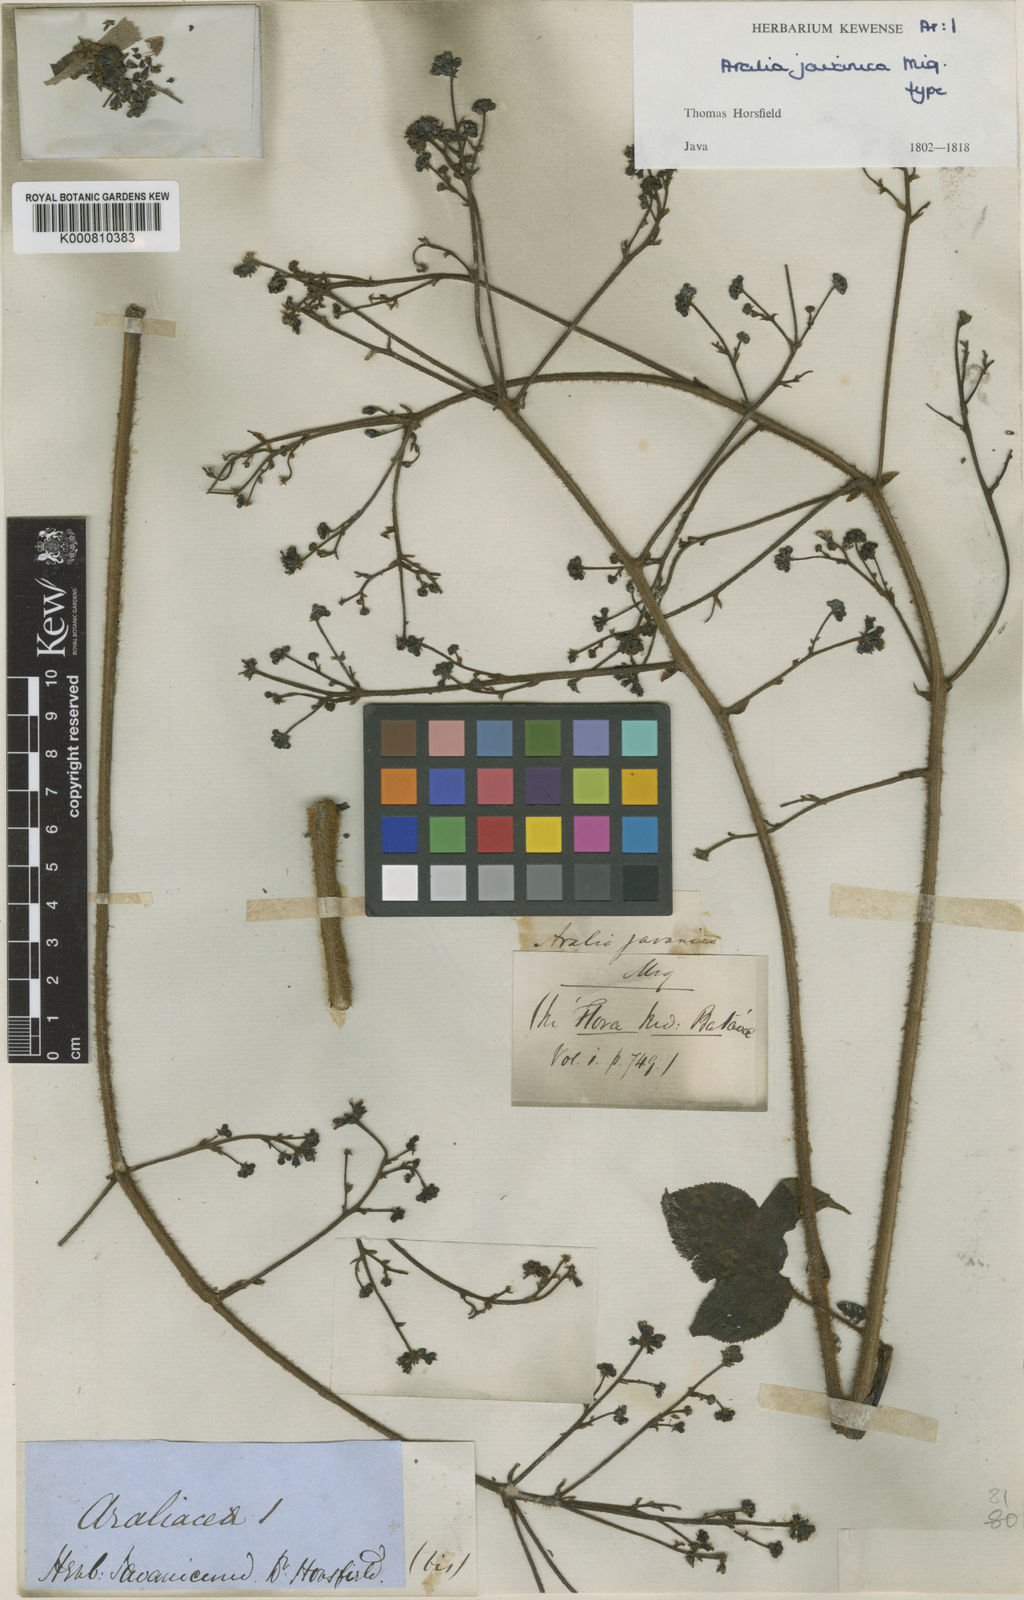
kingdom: Plantae
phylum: Tracheophyta
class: Magnoliopsida
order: Apiales
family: Araliaceae
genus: Aralia
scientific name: Aralia dasyphylla
